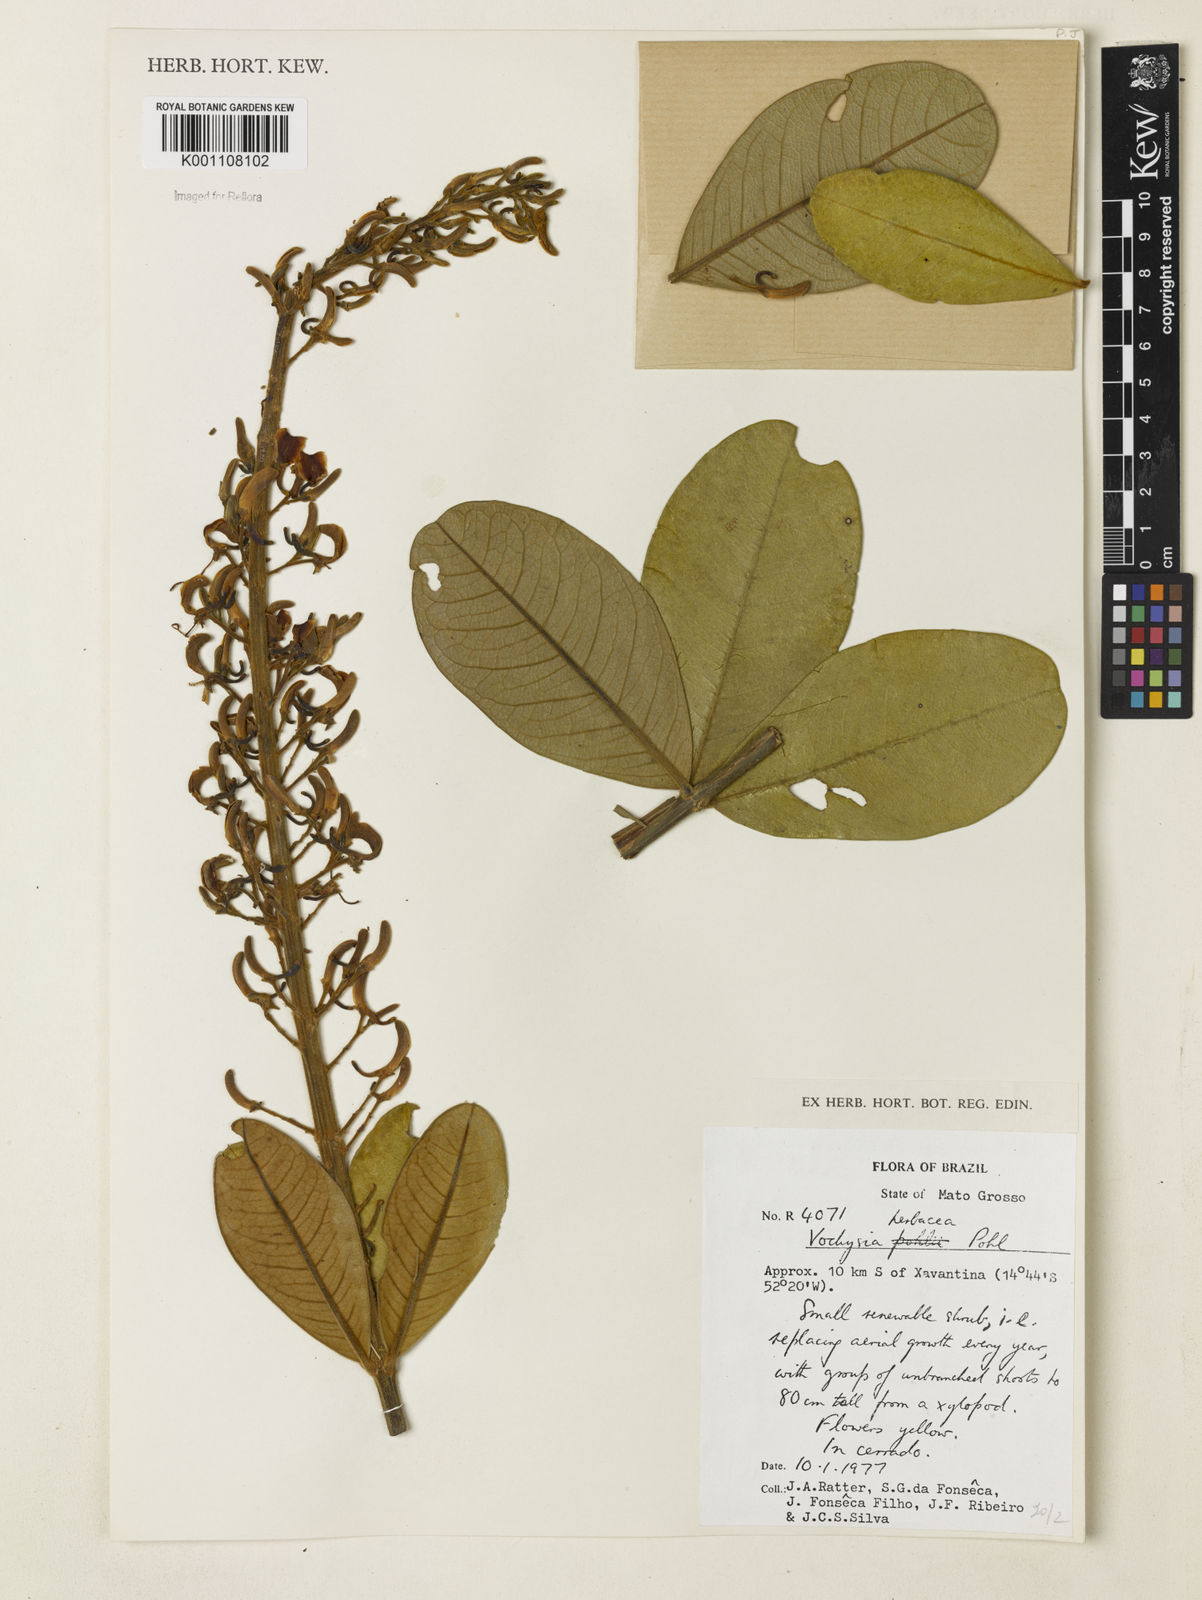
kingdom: Plantae
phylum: Tracheophyta
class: Magnoliopsida
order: Myrtales
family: Vochysiaceae
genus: Vochysia
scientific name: Vochysia herbacea
